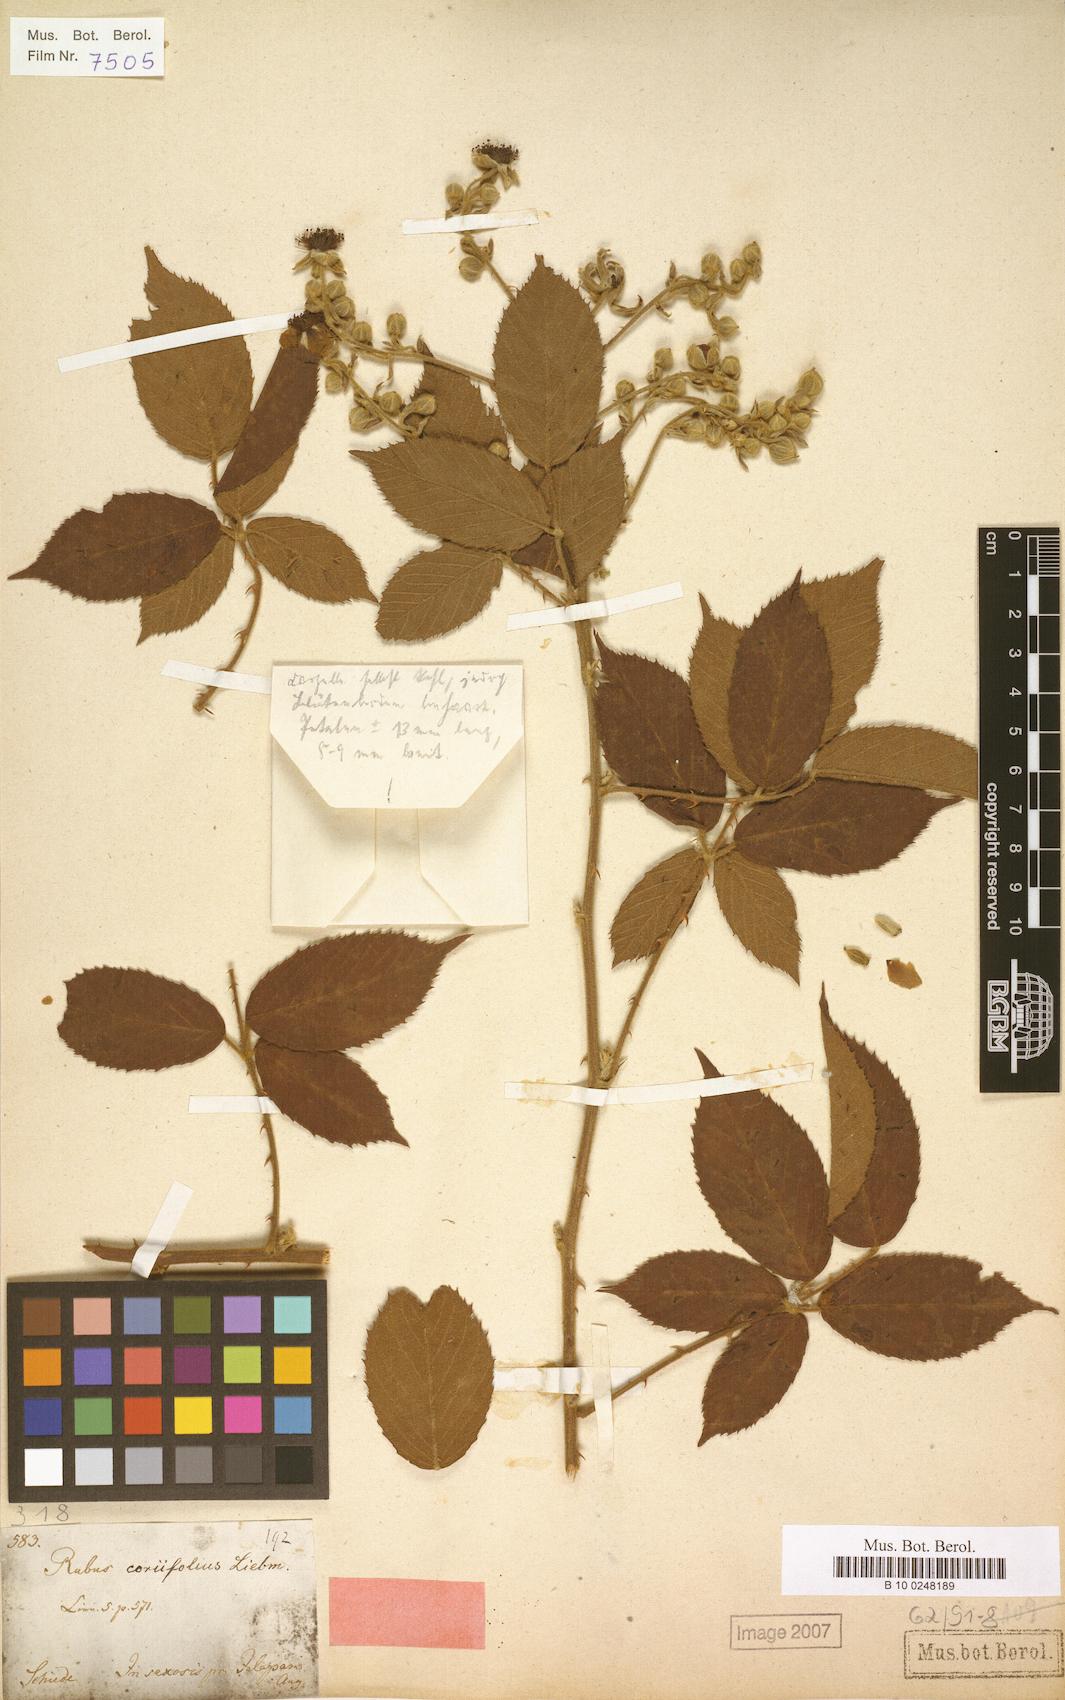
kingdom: Plantae
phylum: Tracheophyta
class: Magnoliopsida
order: Rosales
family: Rosaceae
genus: Rubus
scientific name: Rubus coriifolius
